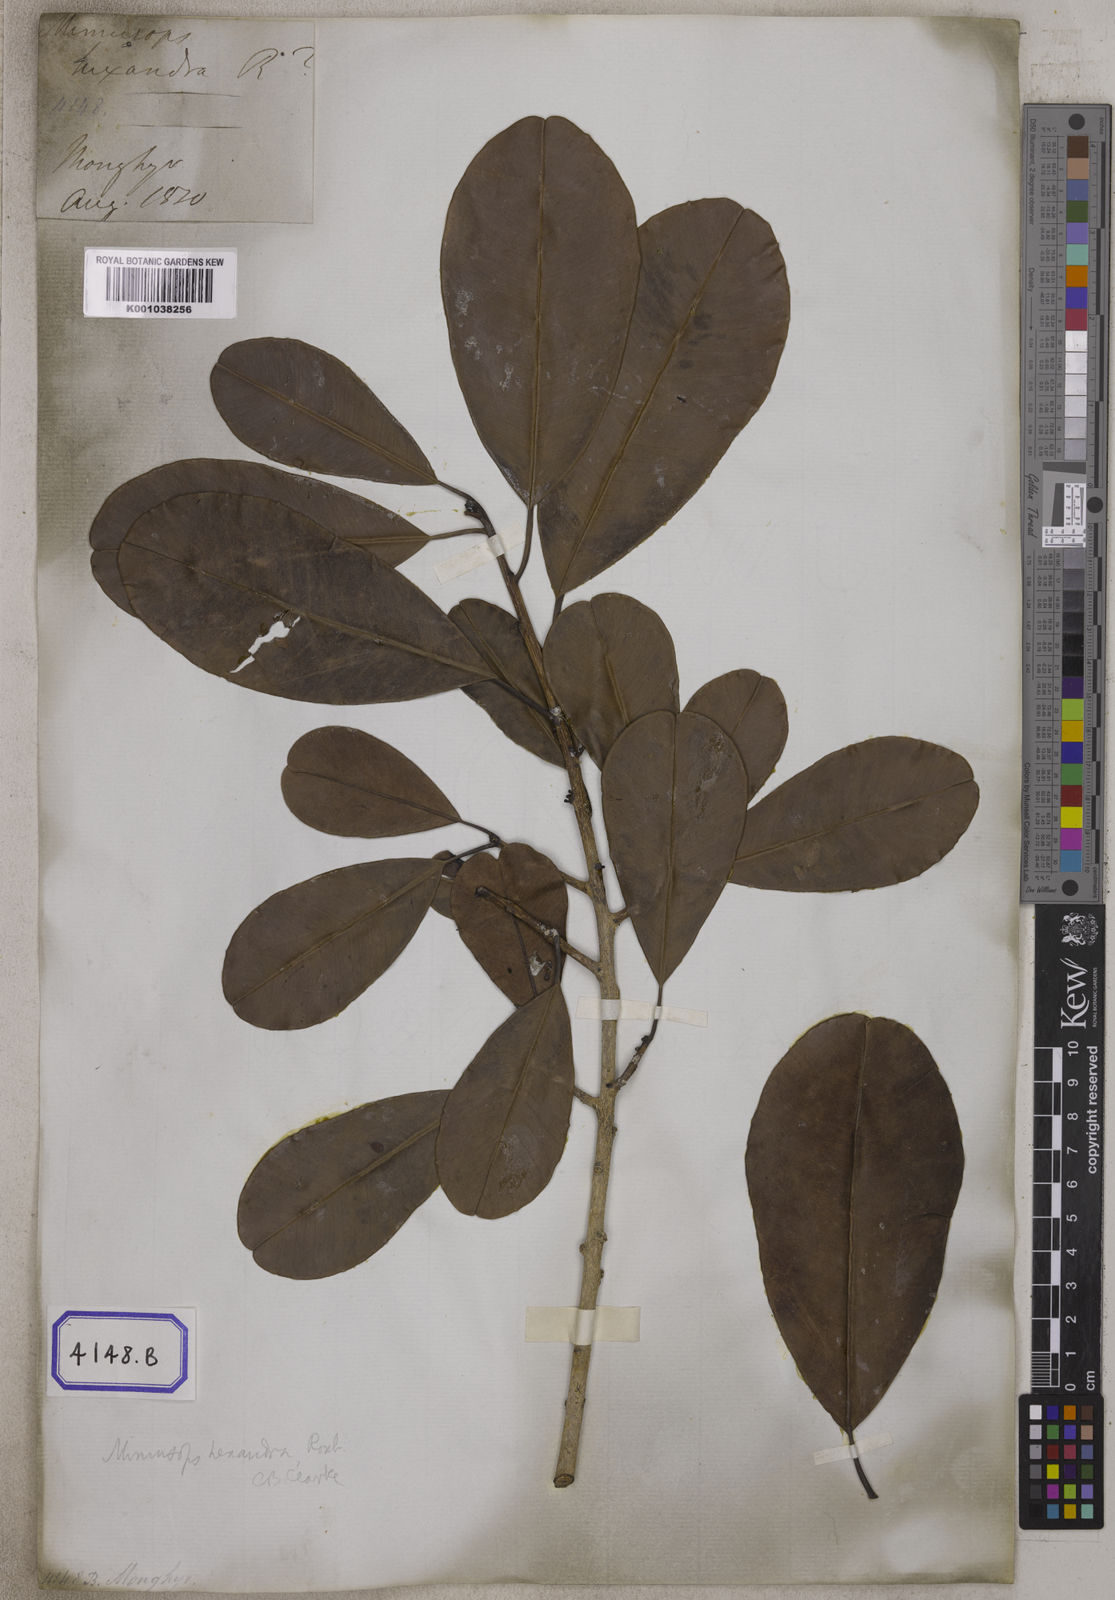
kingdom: Plantae
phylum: Tracheophyta
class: Magnoliopsida
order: Ericales
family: Sapotaceae
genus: Mimusops
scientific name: Mimusops
